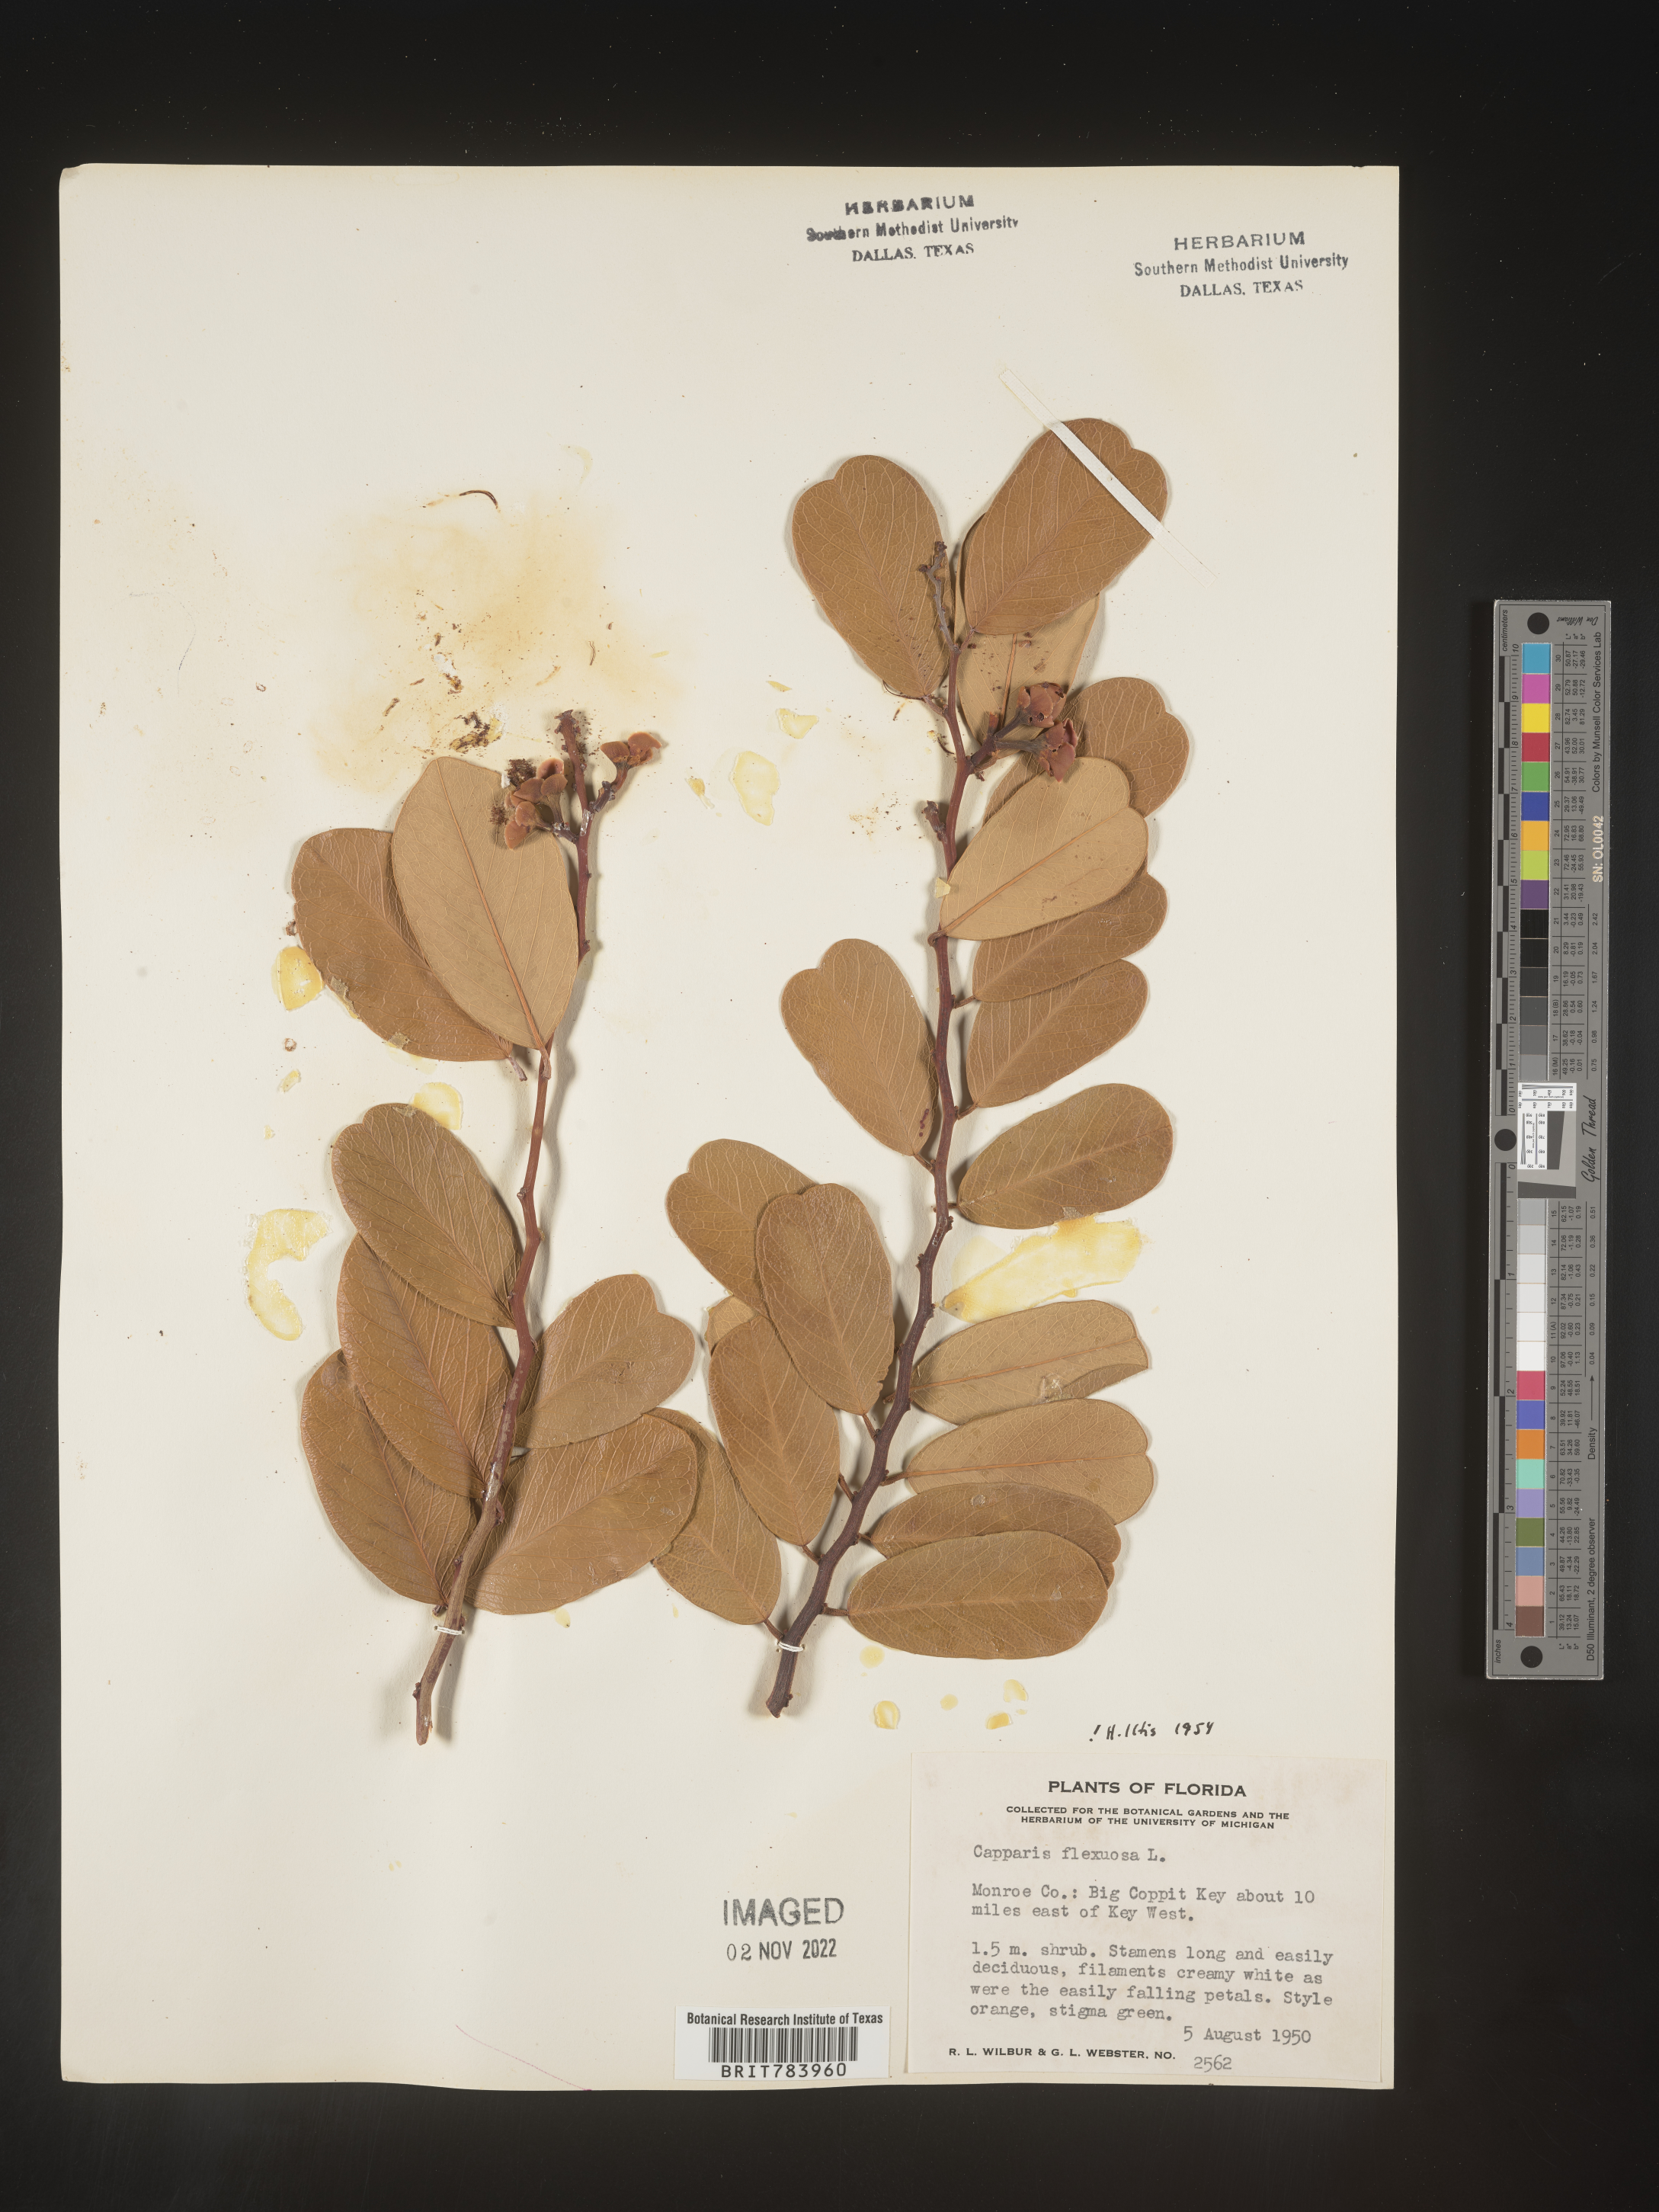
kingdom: Plantae
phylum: Tracheophyta
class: Magnoliopsida
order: Brassicales
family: Capparaceae
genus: Capparis
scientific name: Capparis
